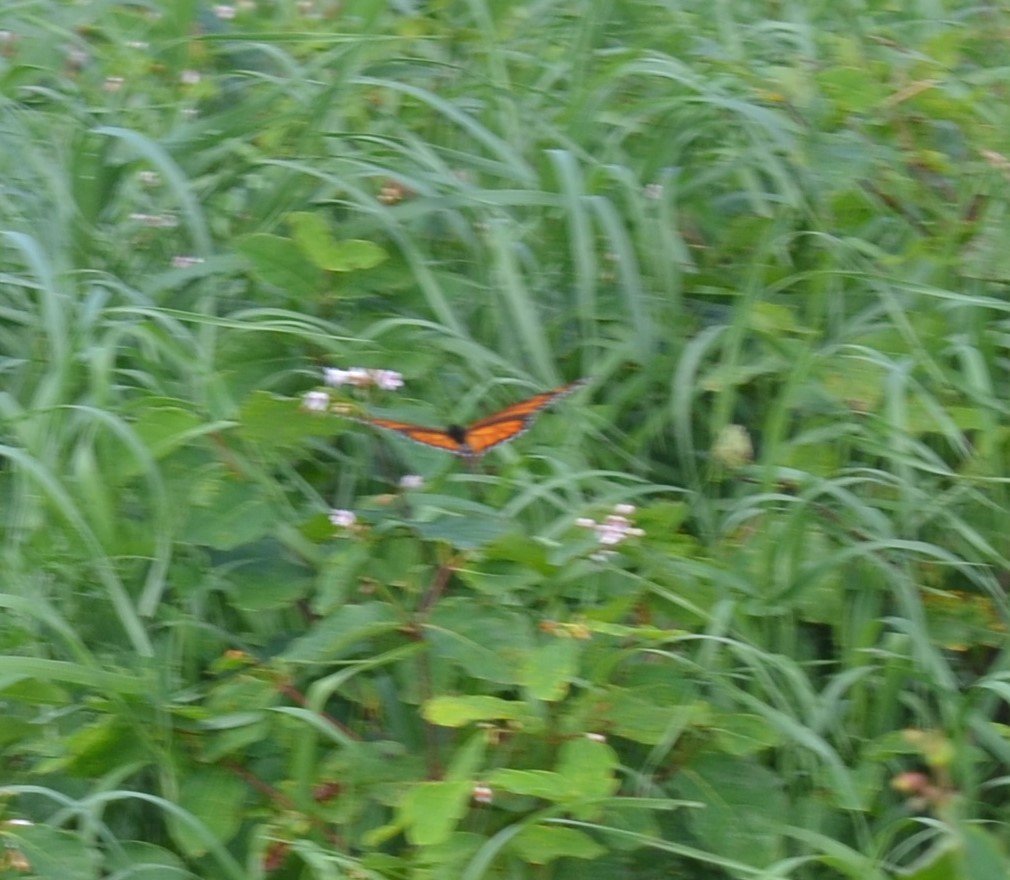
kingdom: Animalia
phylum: Arthropoda
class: Insecta
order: Lepidoptera
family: Nymphalidae
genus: Danaus
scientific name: Danaus plexippus
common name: Monarch
